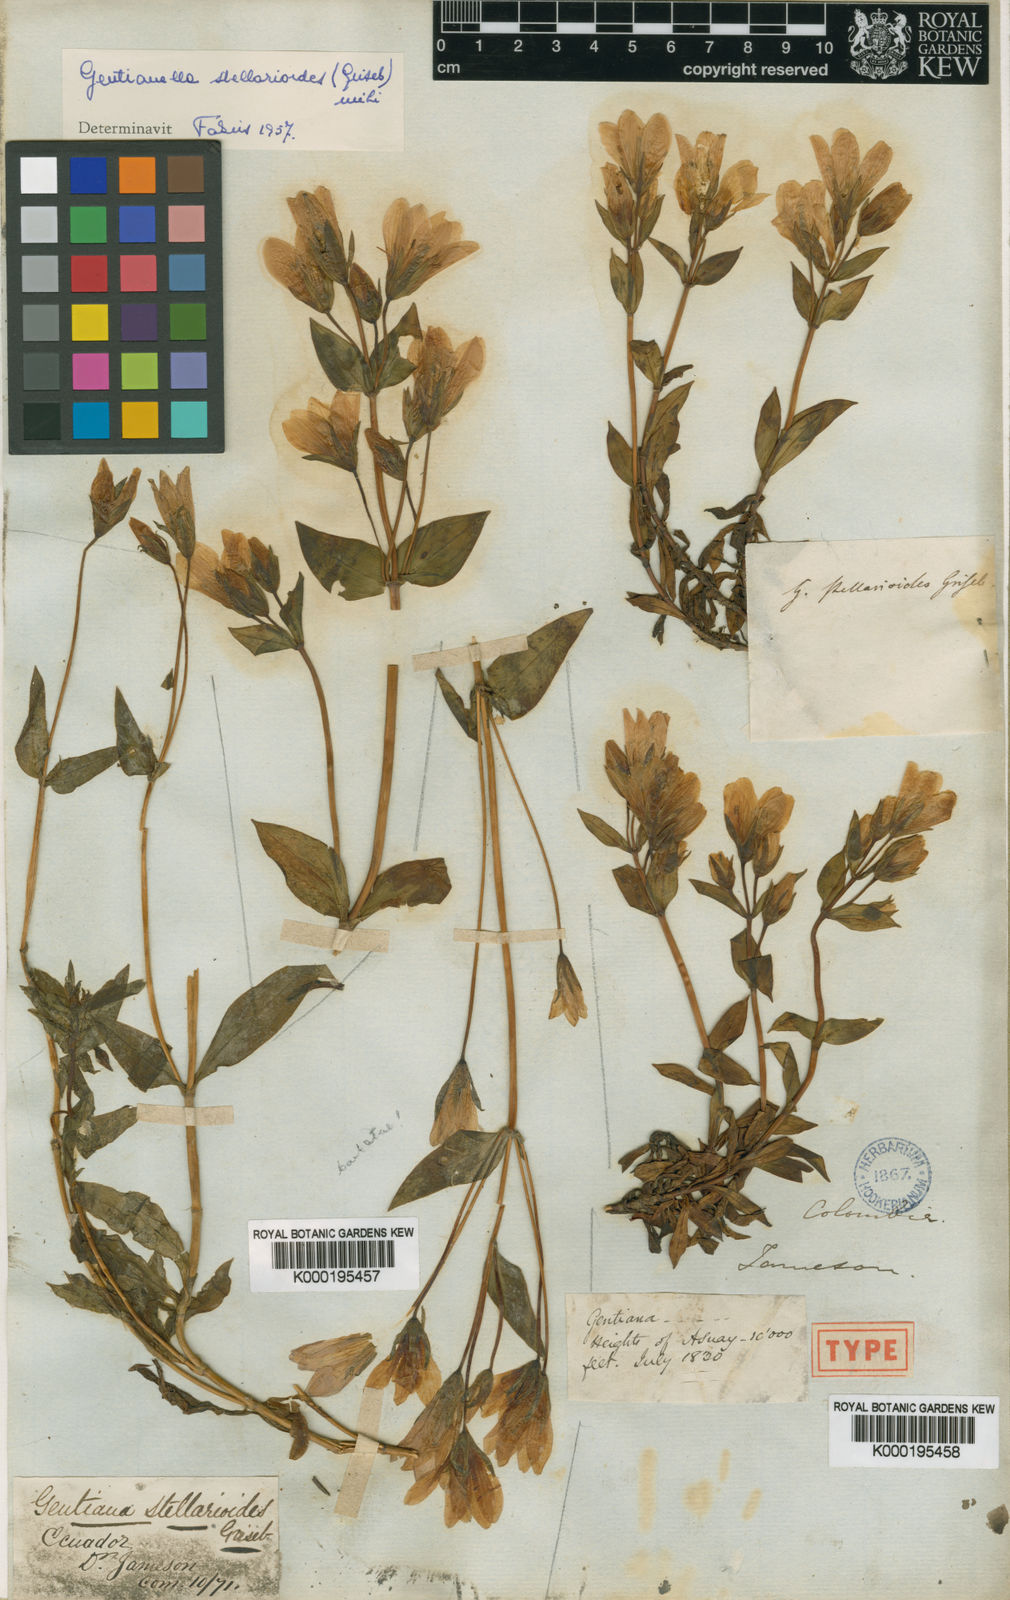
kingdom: Plantae
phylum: Tracheophyta
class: Magnoliopsida
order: Gentianales
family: Gentianaceae
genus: Gentianella
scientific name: Gentianella foliosa
